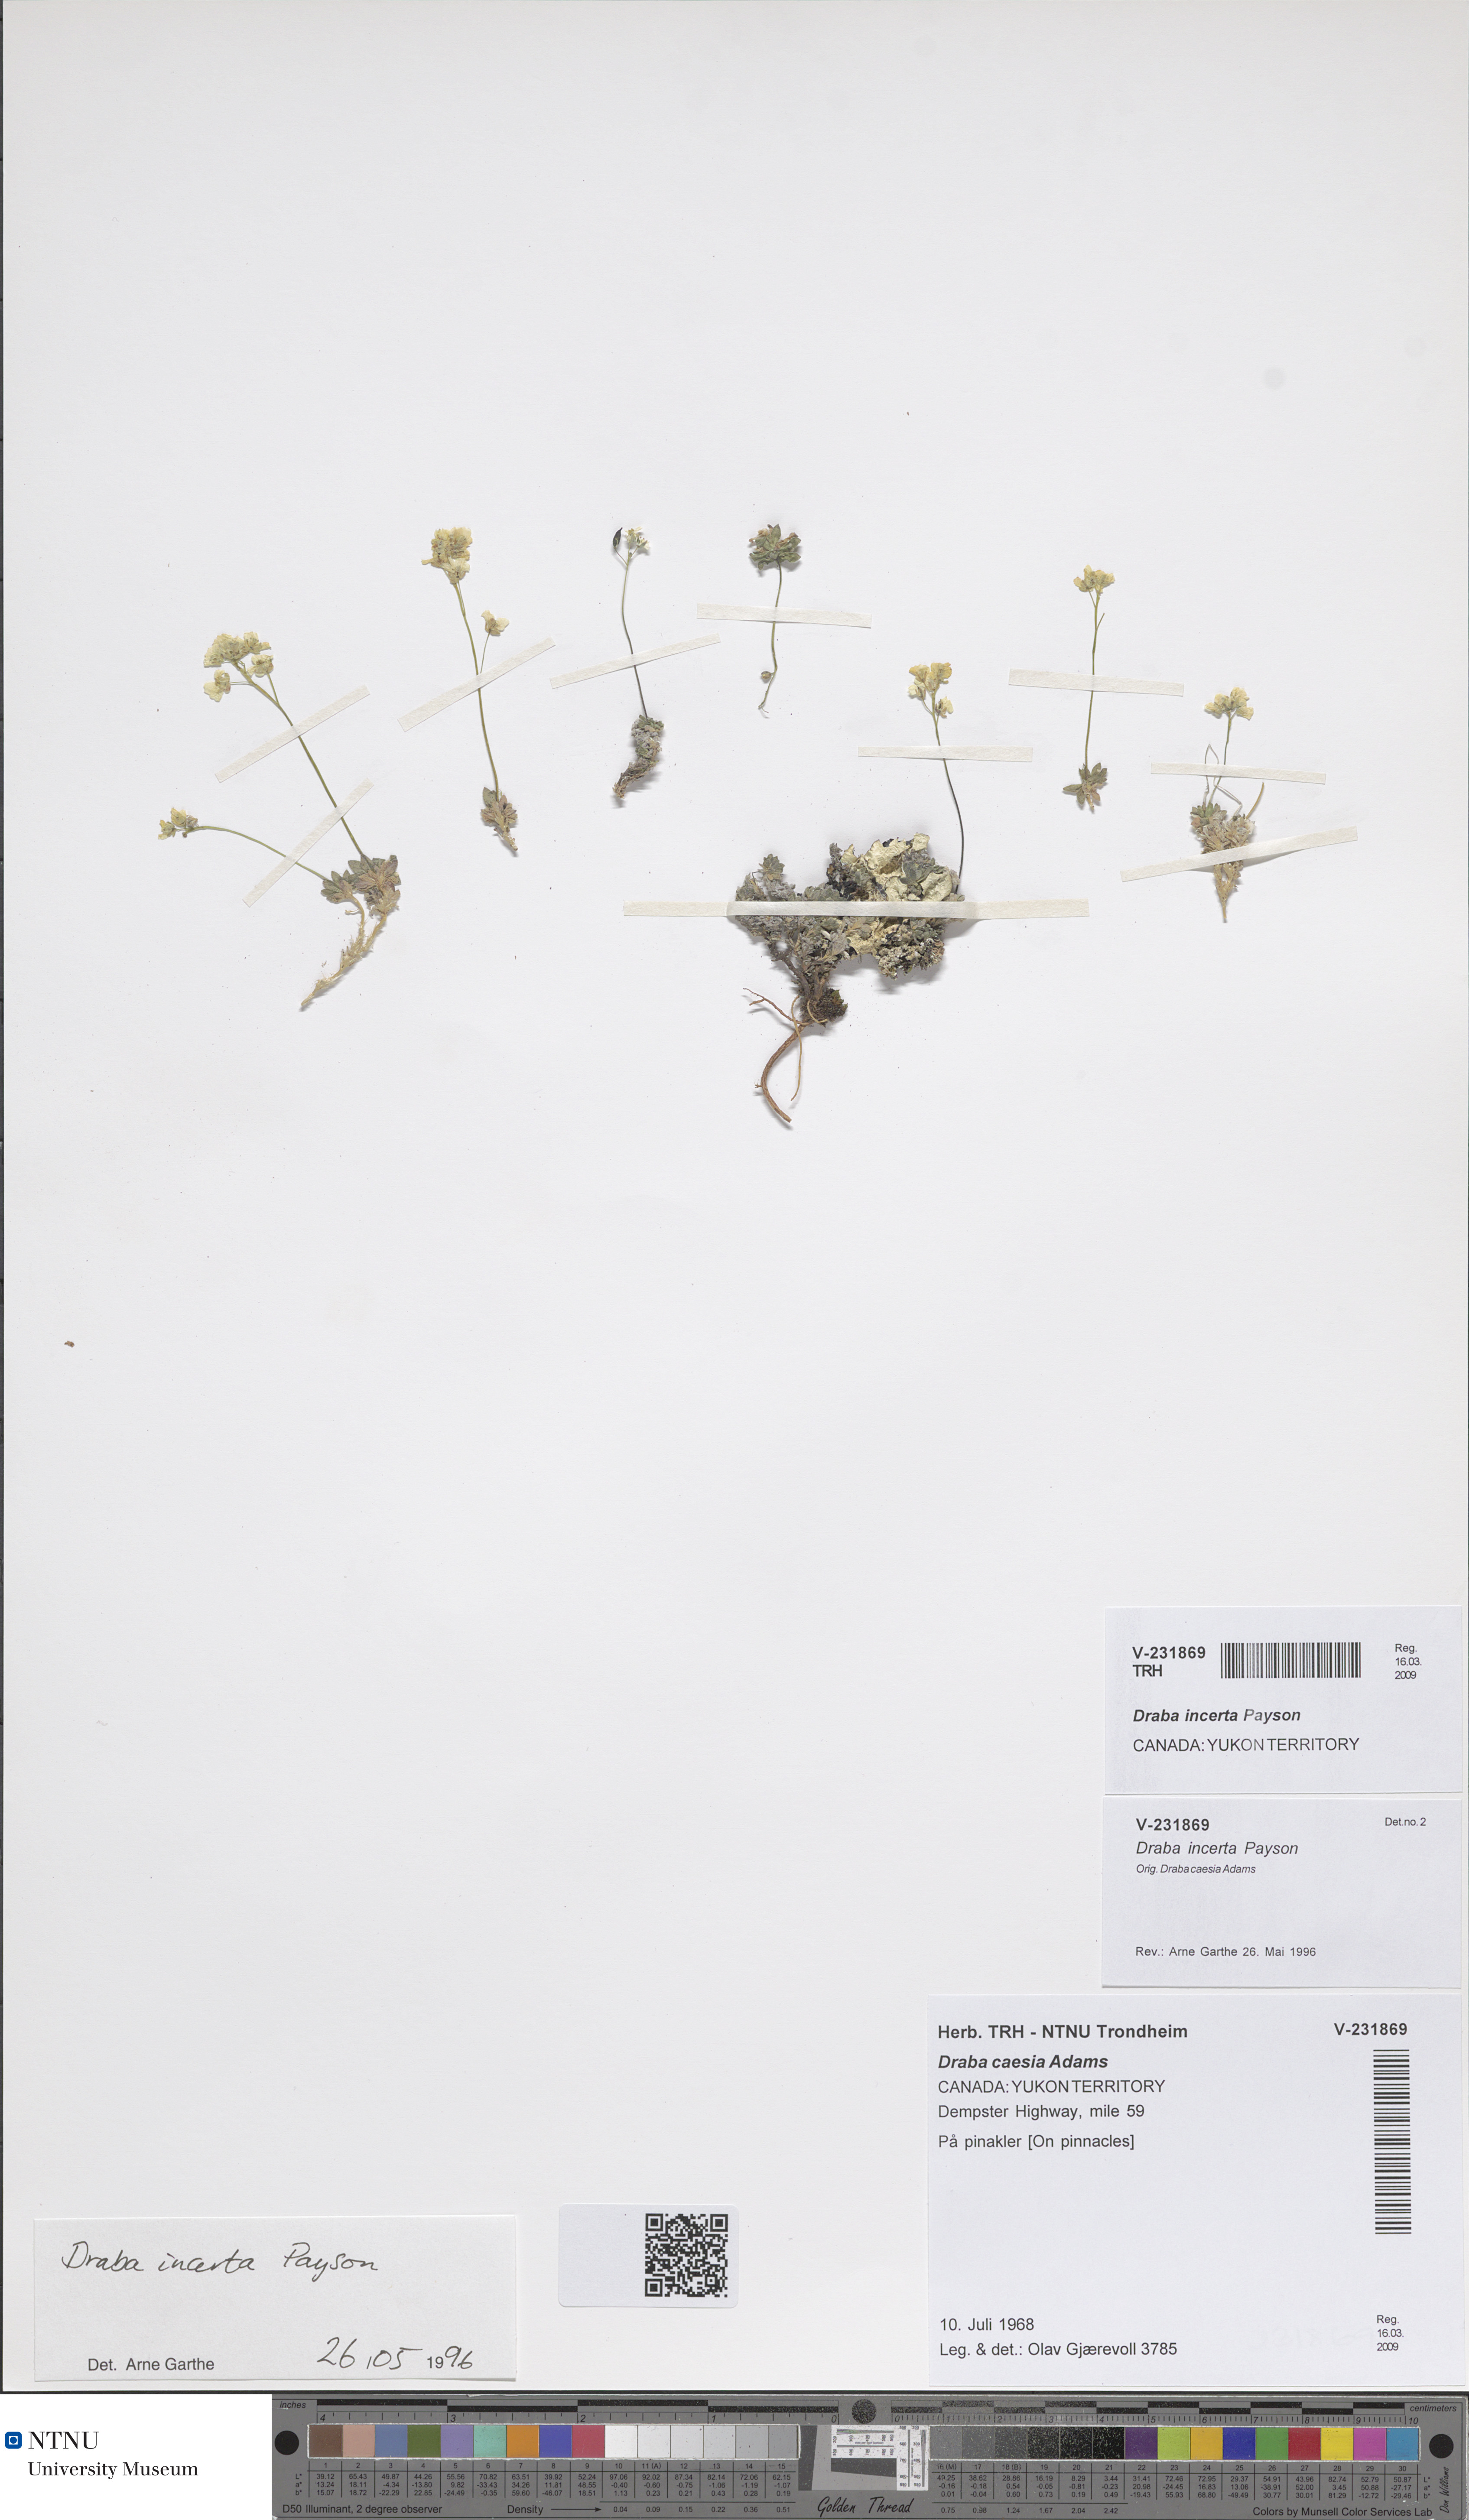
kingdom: Plantae
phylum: Tracheophyta
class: Magnoliopsida
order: Brassicales
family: Brassicaceae
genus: Draba
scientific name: Draba incerta
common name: Yellowstone draba
